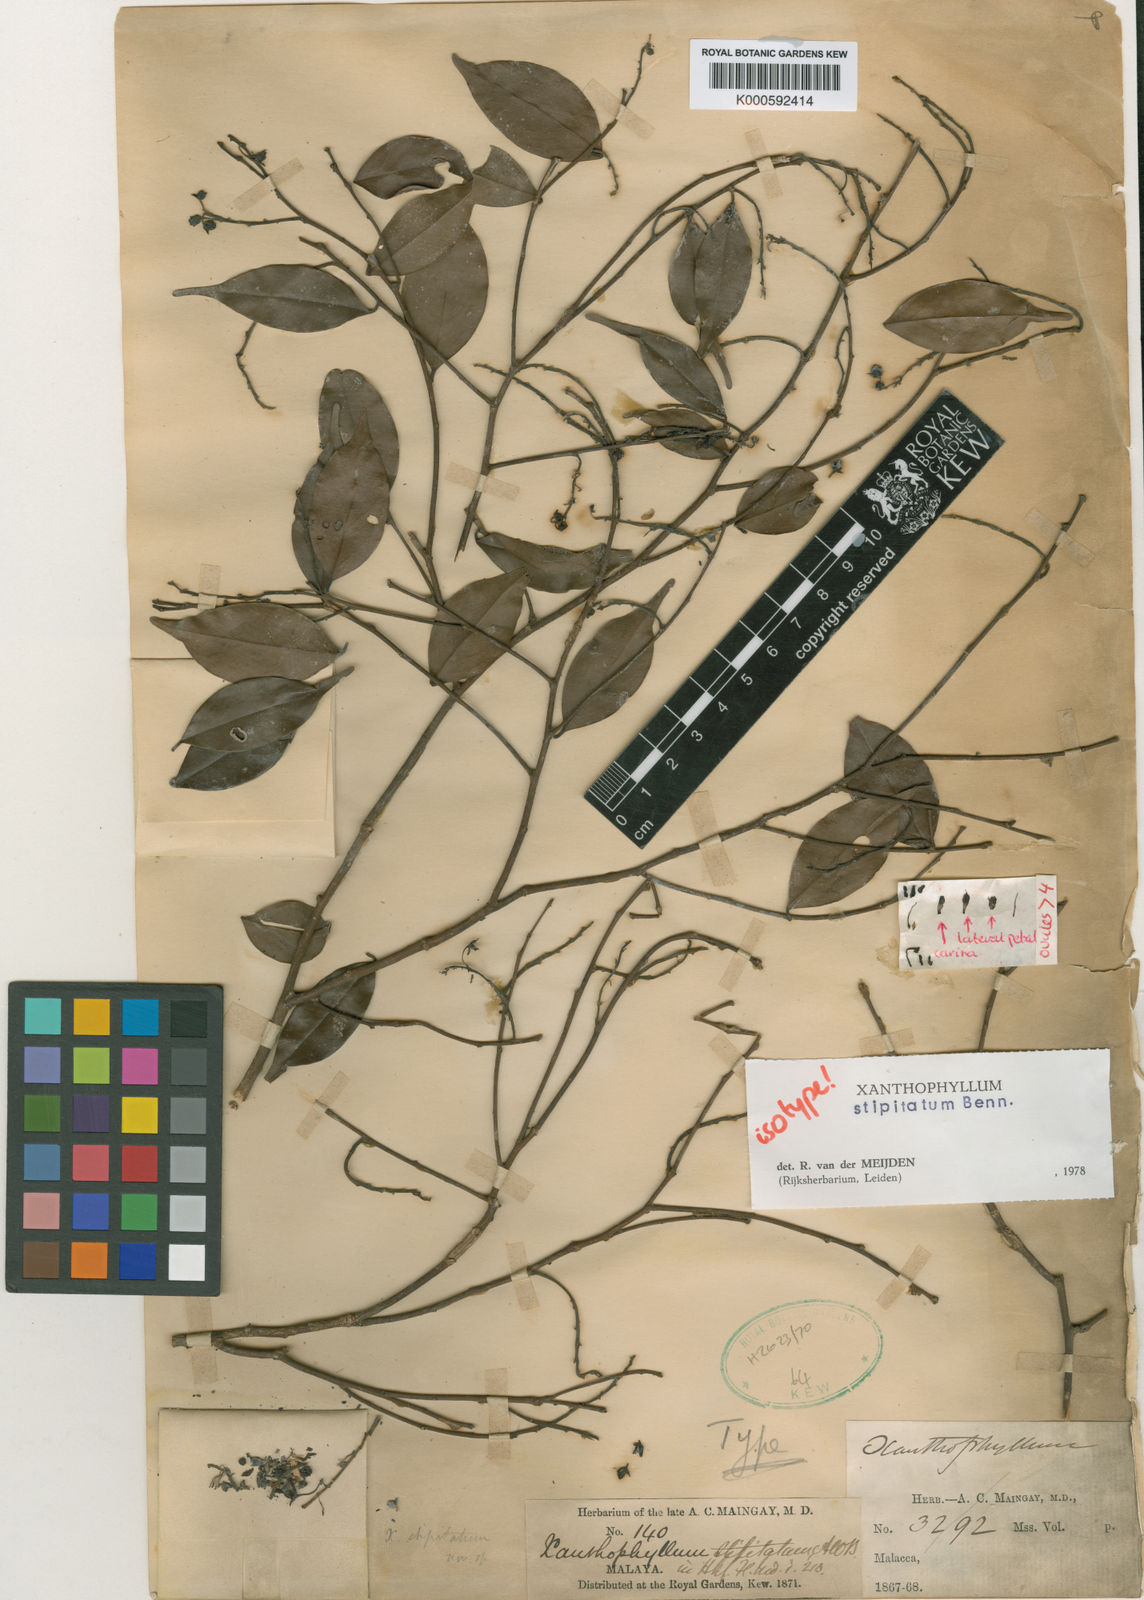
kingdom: Plantae
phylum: Tracheophyta
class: Magnoliopsida
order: Fabales
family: Polygalaceae
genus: Xanthophyllum
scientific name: Xanthophyllum stipitatum
